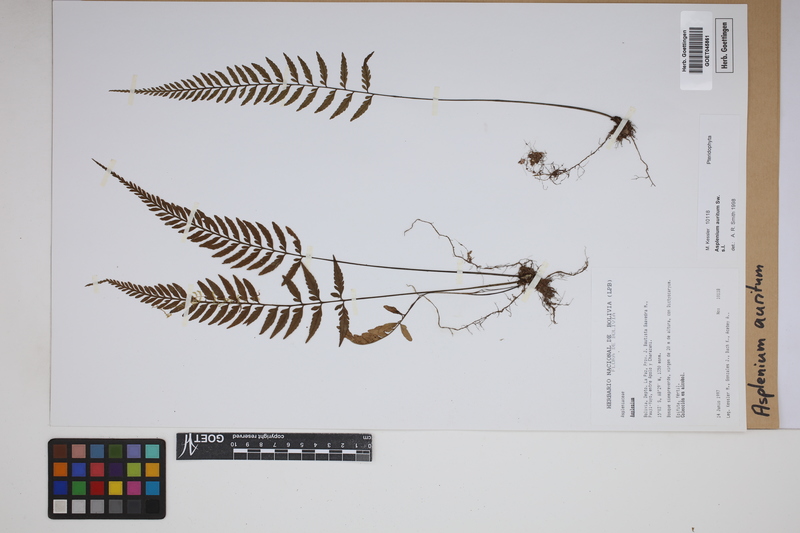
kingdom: Plantae
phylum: Tracheophyta
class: Polypodiopsida
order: Polypodiales
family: Aspleniaceae
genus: Asplenium
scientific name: Asplenium auritum
